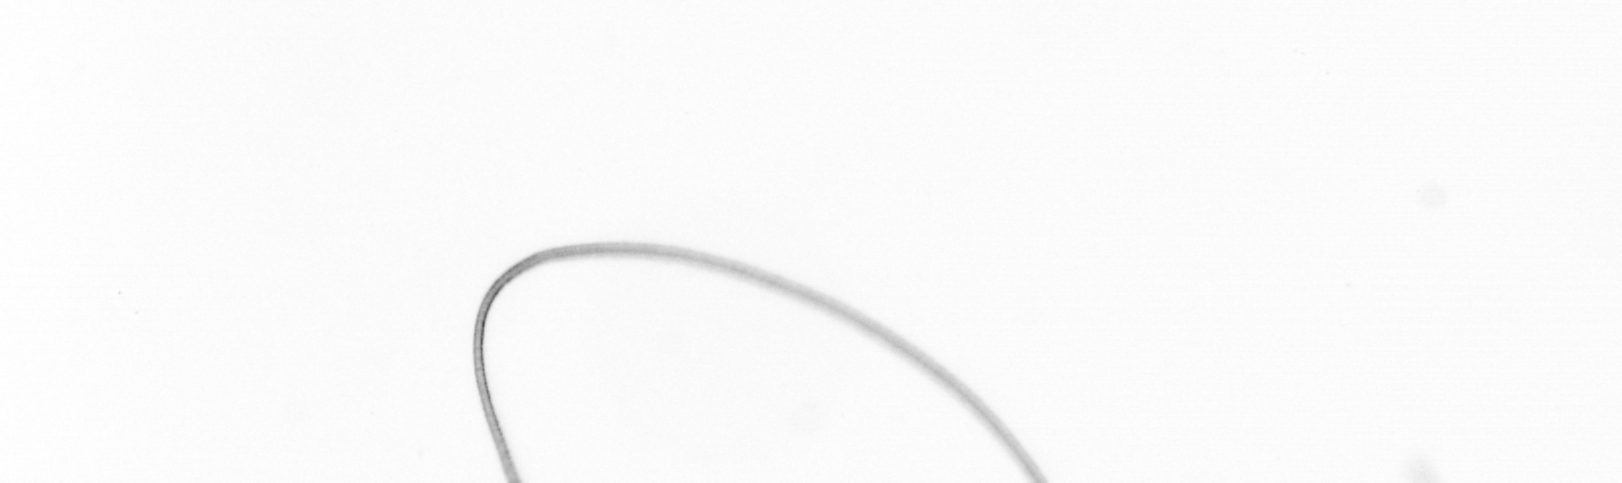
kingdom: Chromista
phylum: Ochrophyta
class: Bacillariophyceae
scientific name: Bacillariophyceae
